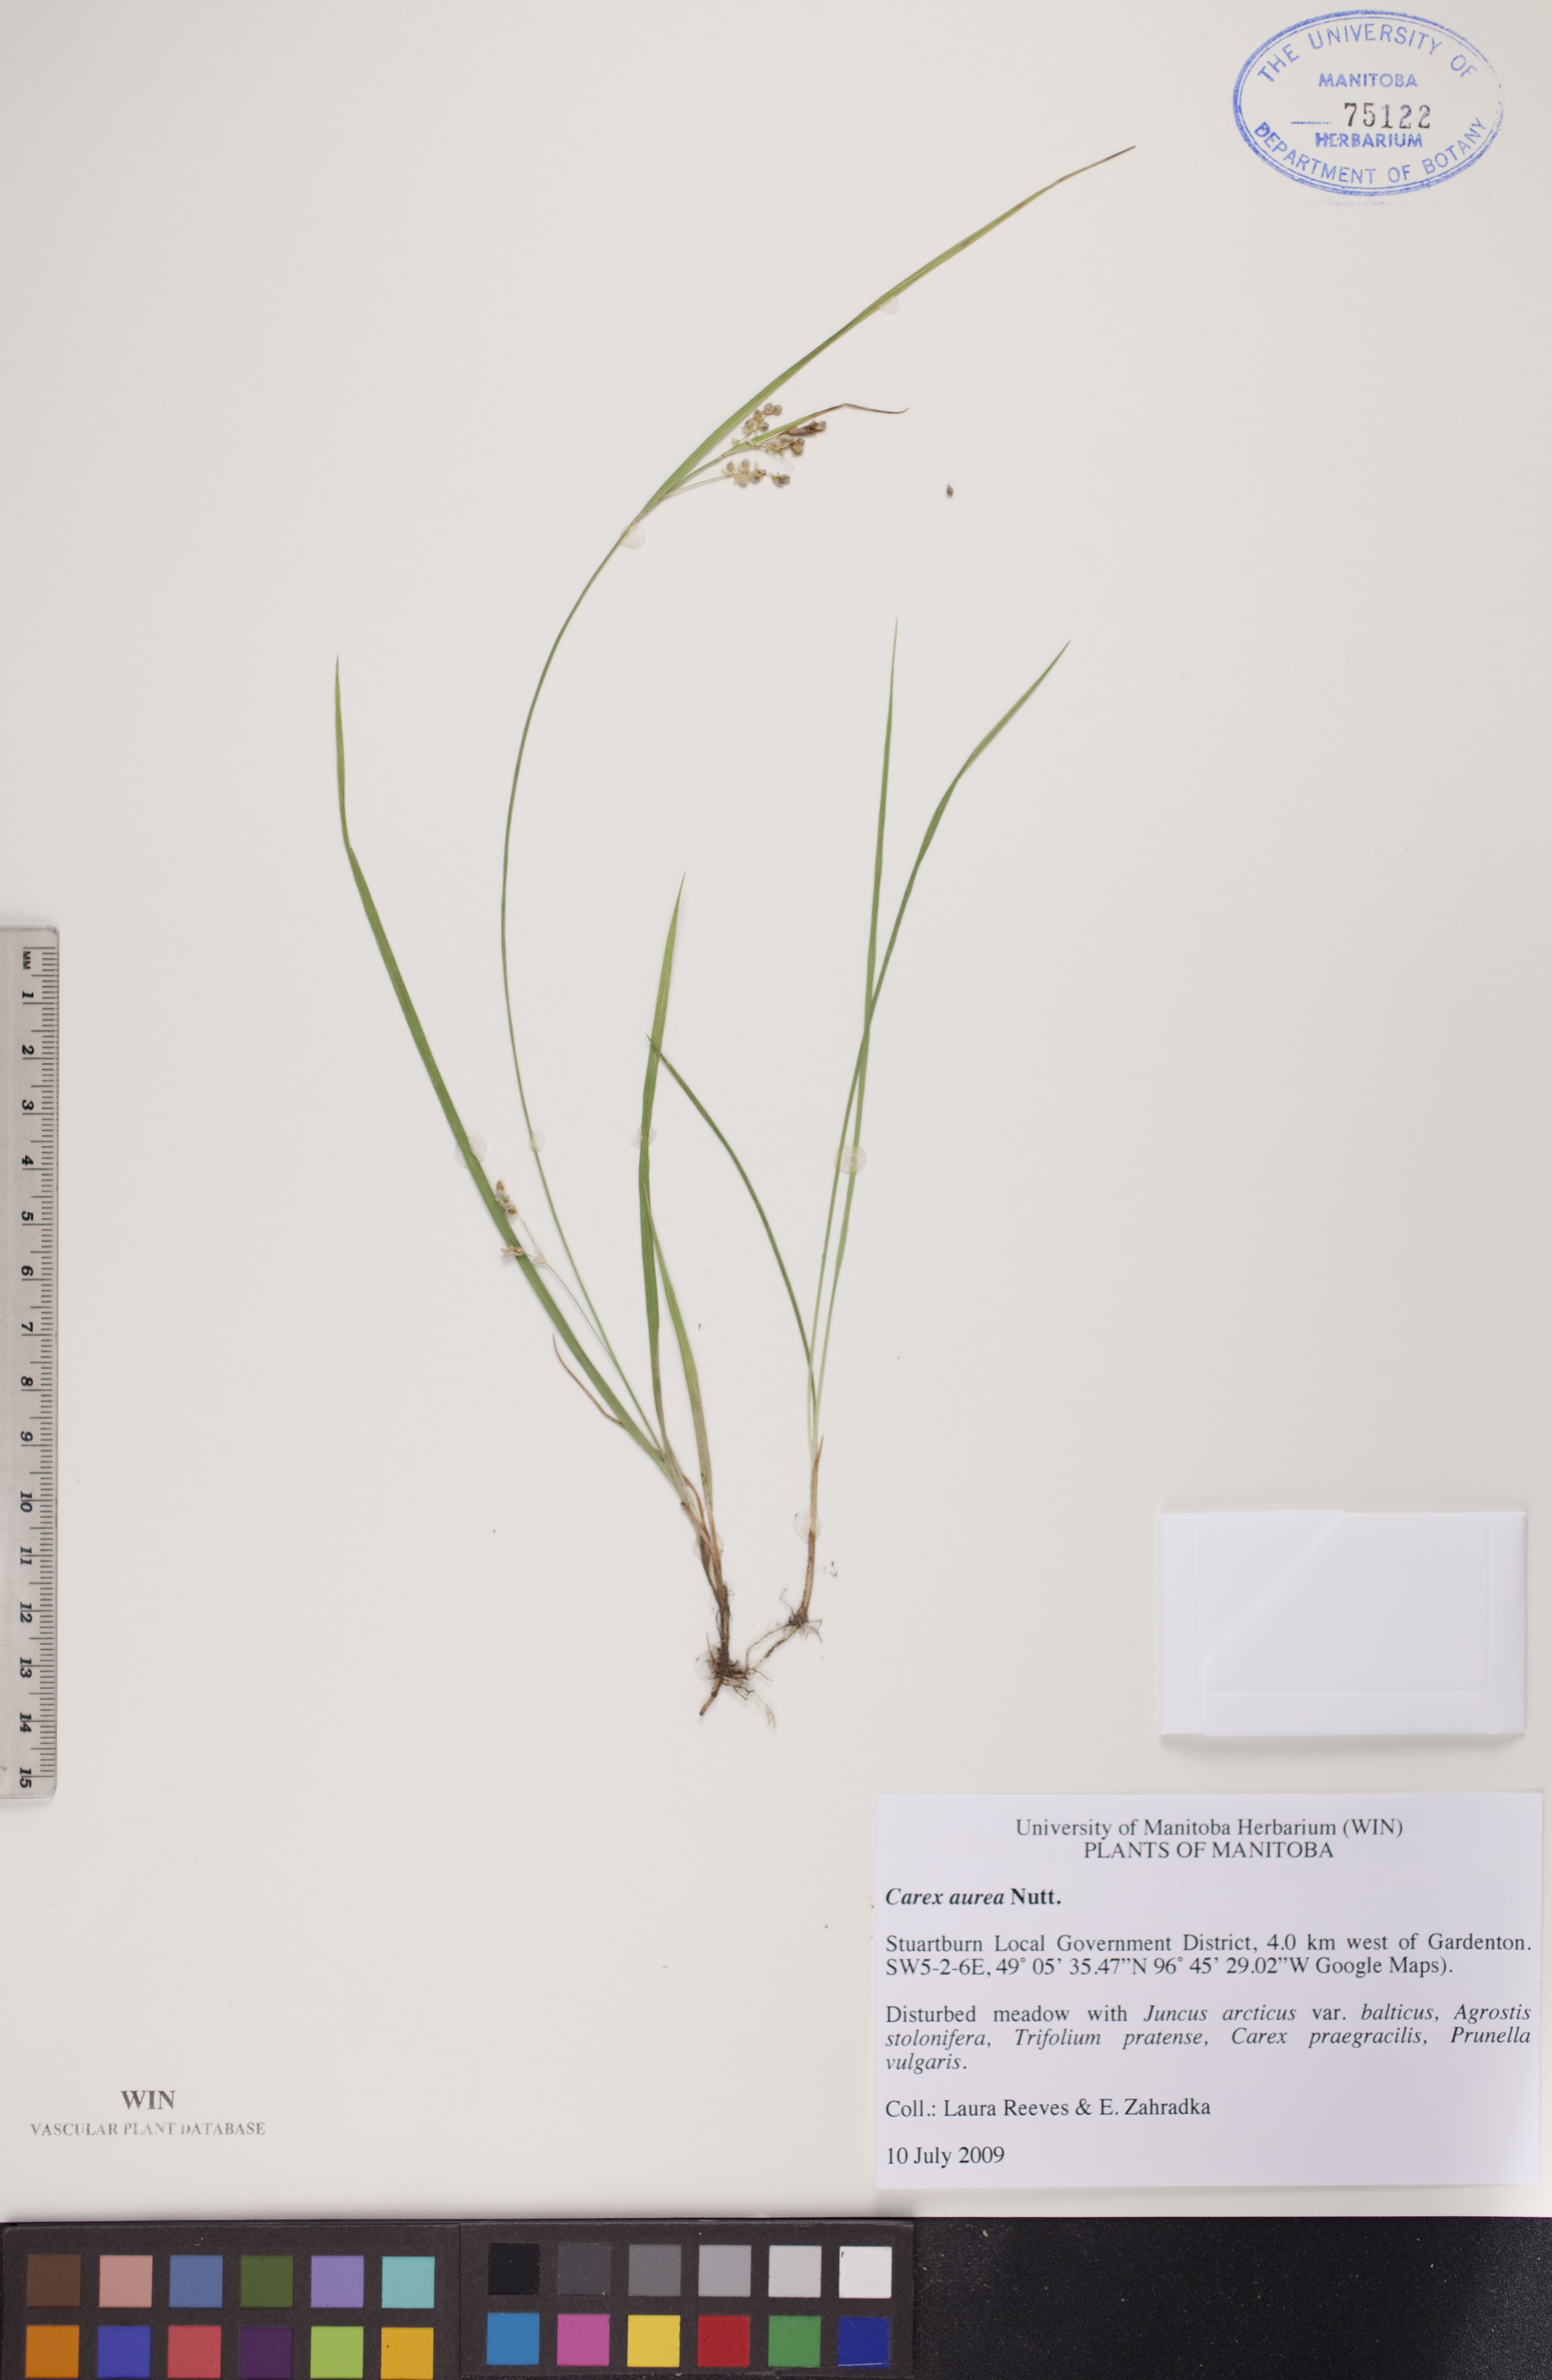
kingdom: Plantae
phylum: Tracheophyta
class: Liliopsida
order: Poales
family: Cyperaceae
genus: Carex
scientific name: Carex aurea
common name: Golden sedge
